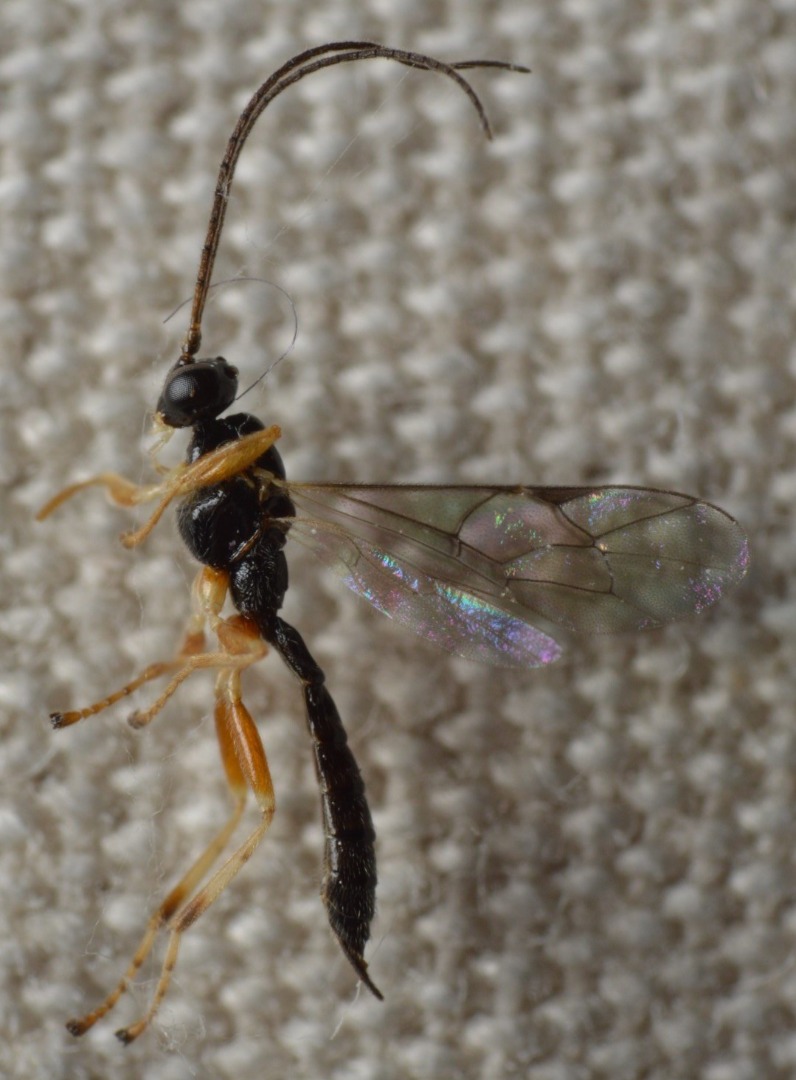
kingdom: Animalia
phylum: Arthropoda
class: Insecta
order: Hymenoptera
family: Ichneumonidae
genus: Acrodactyla
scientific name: Acrodactyla quadrisculpta
